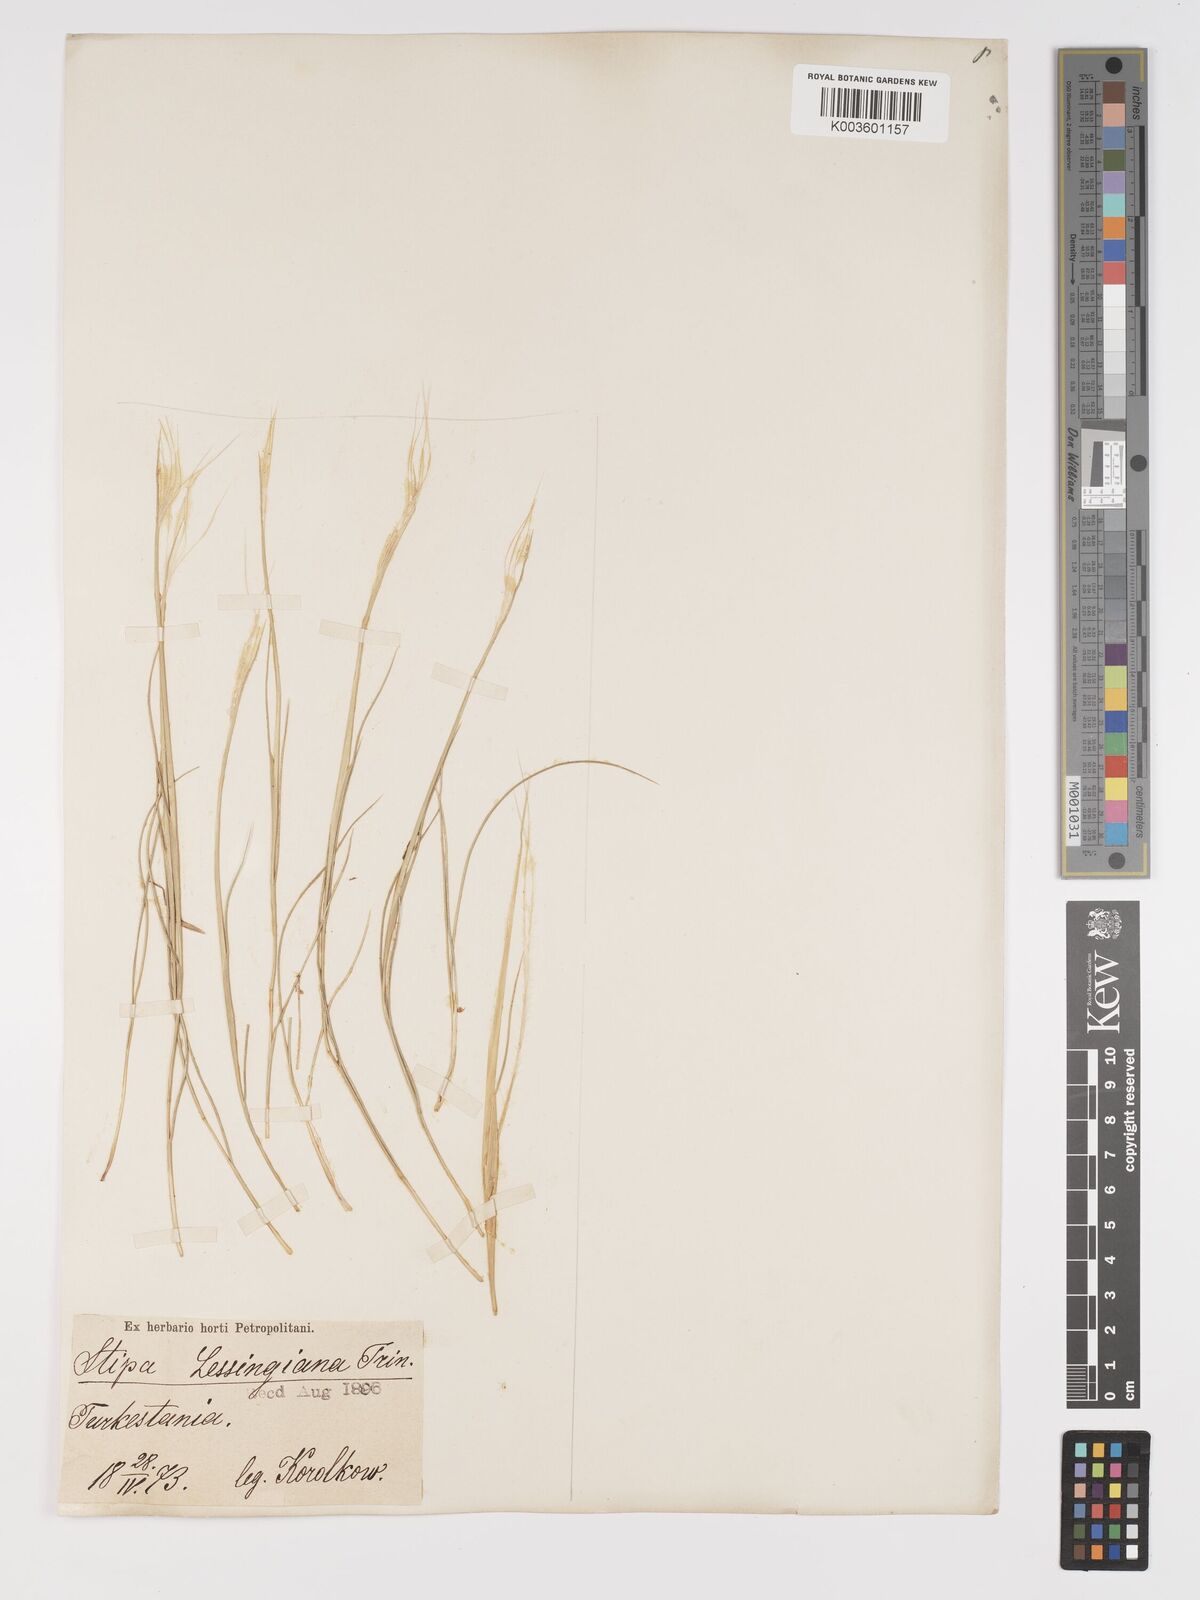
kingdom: Plantae
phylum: Tracheophyta
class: Liliopsida
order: Poales
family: Poaceae
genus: Stipa
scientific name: Stipa lessingiana
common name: Needle grass
